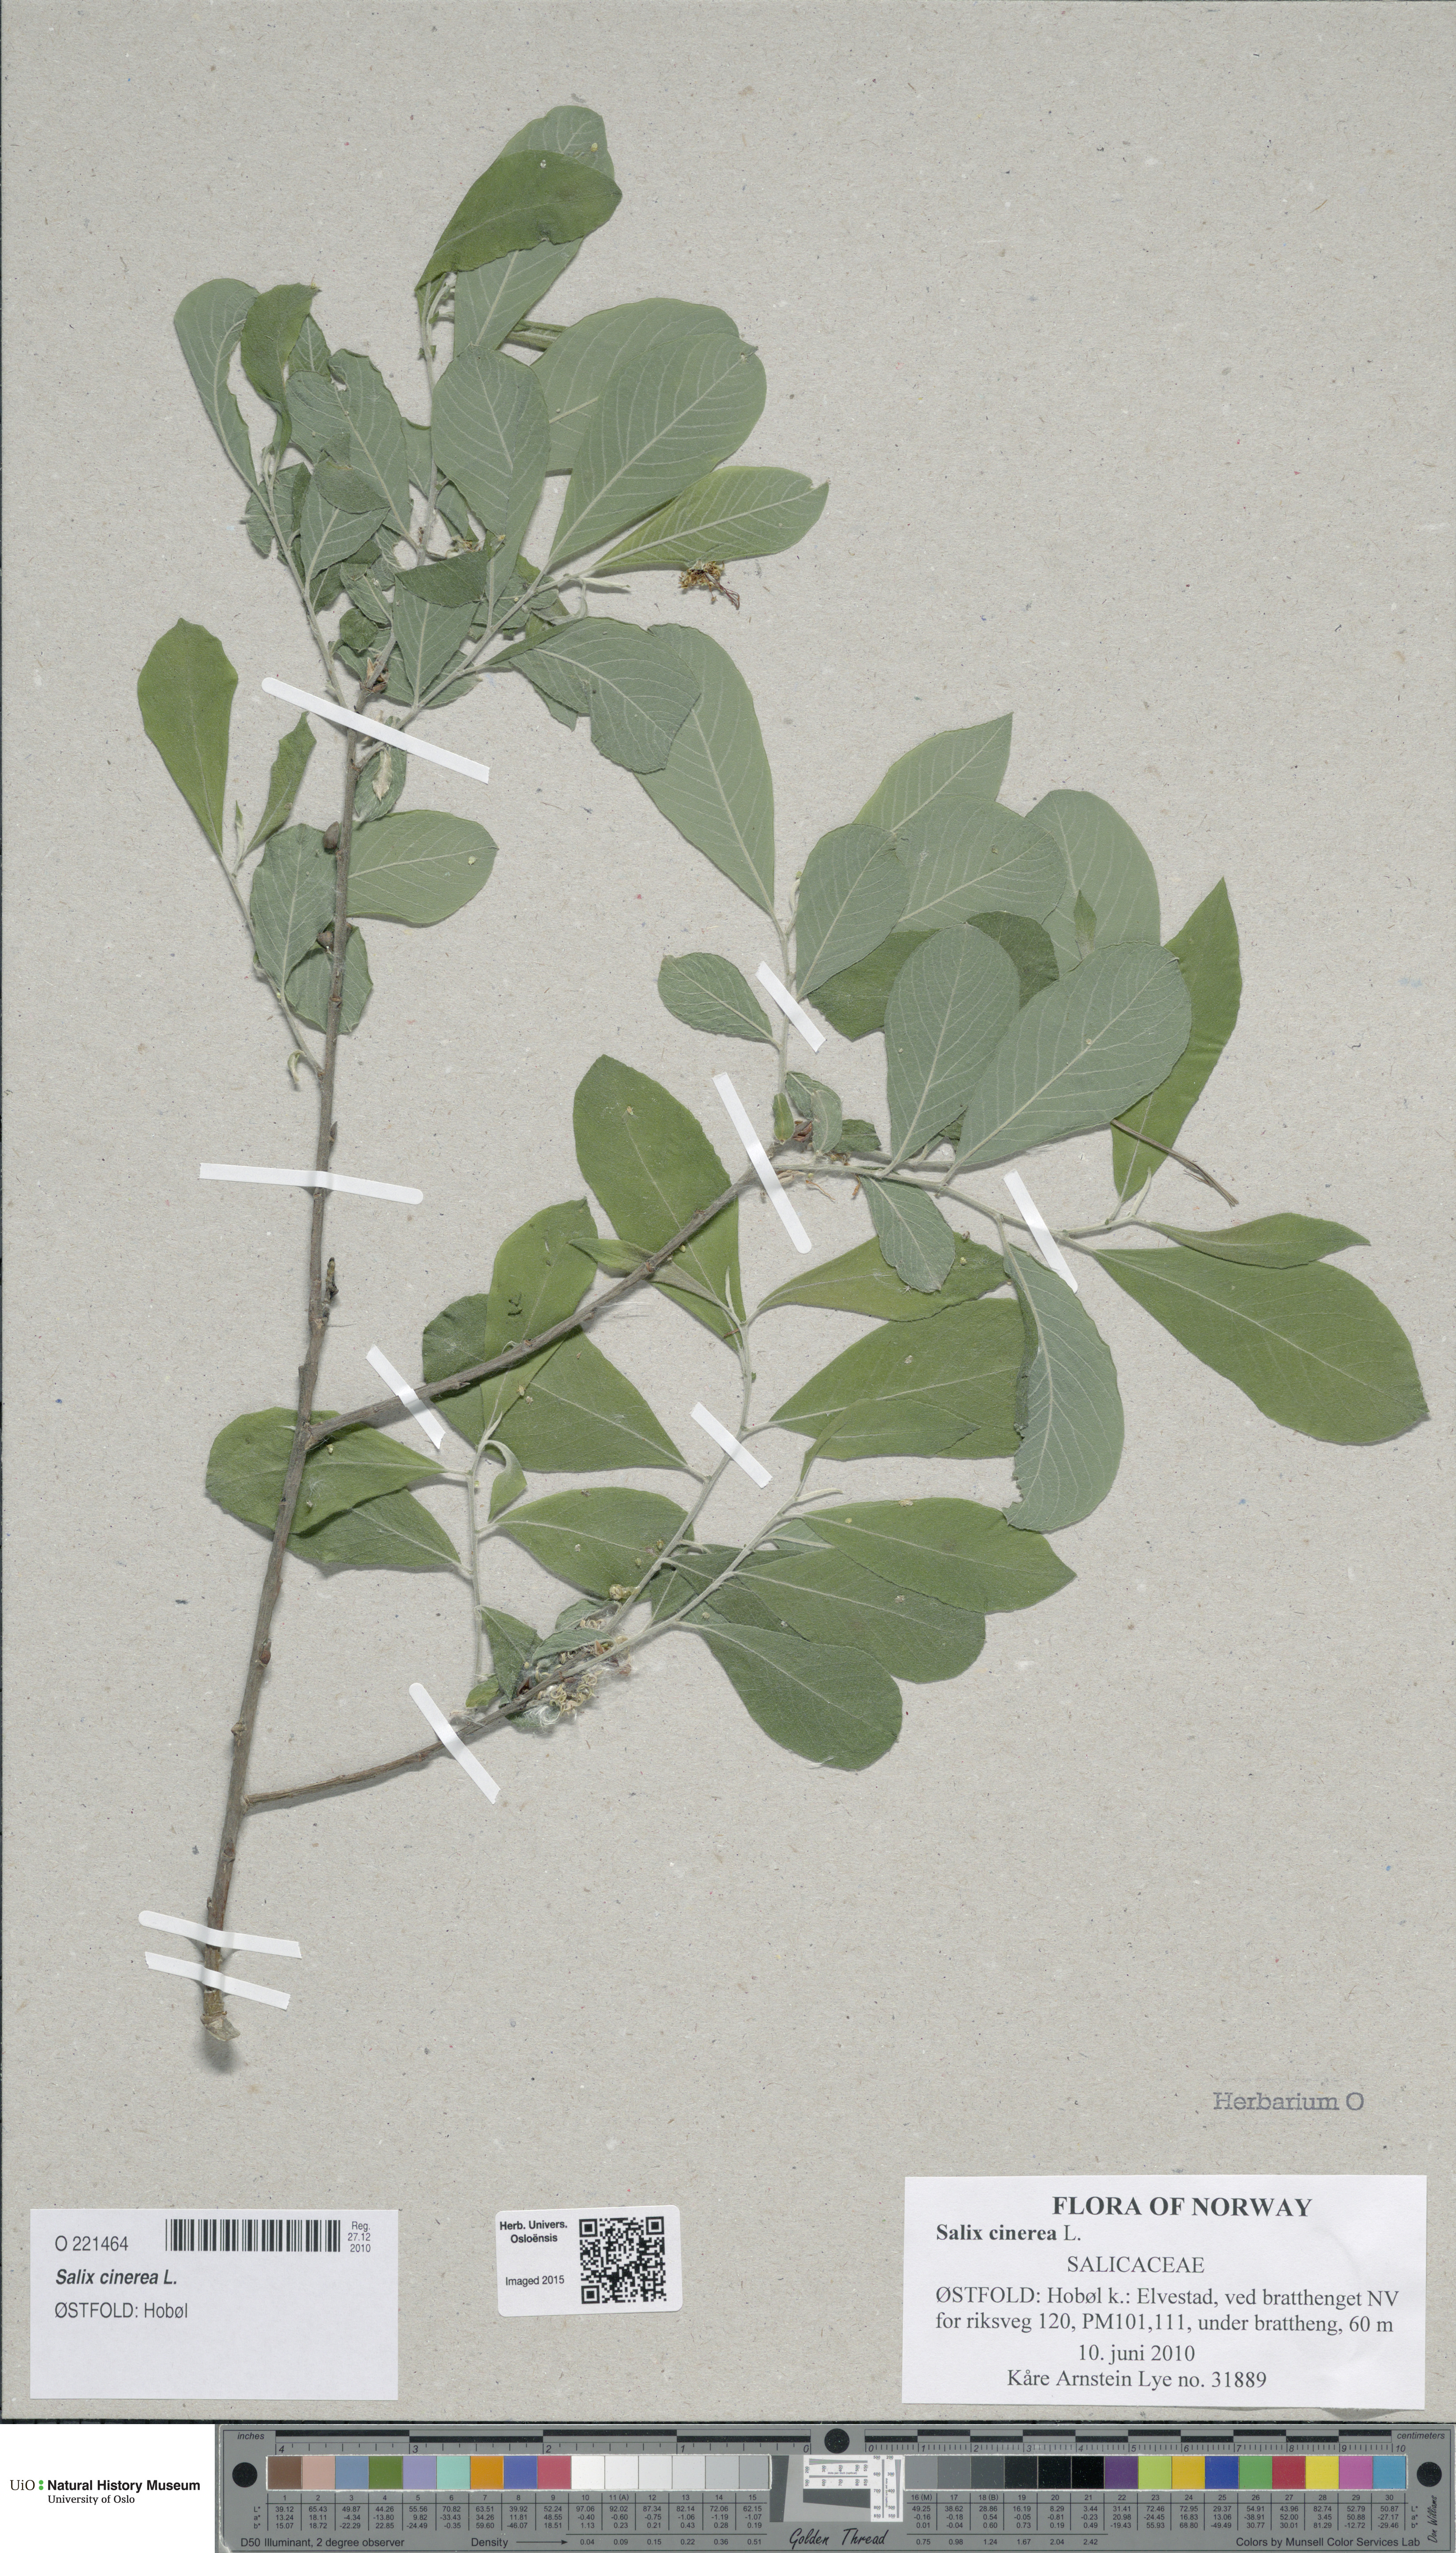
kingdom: Plantae
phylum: Tracheophyta
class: Magnoliopsida
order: Malpighiales
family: Salicaceae
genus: Salix
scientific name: Salix cinerea
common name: Common sallow
